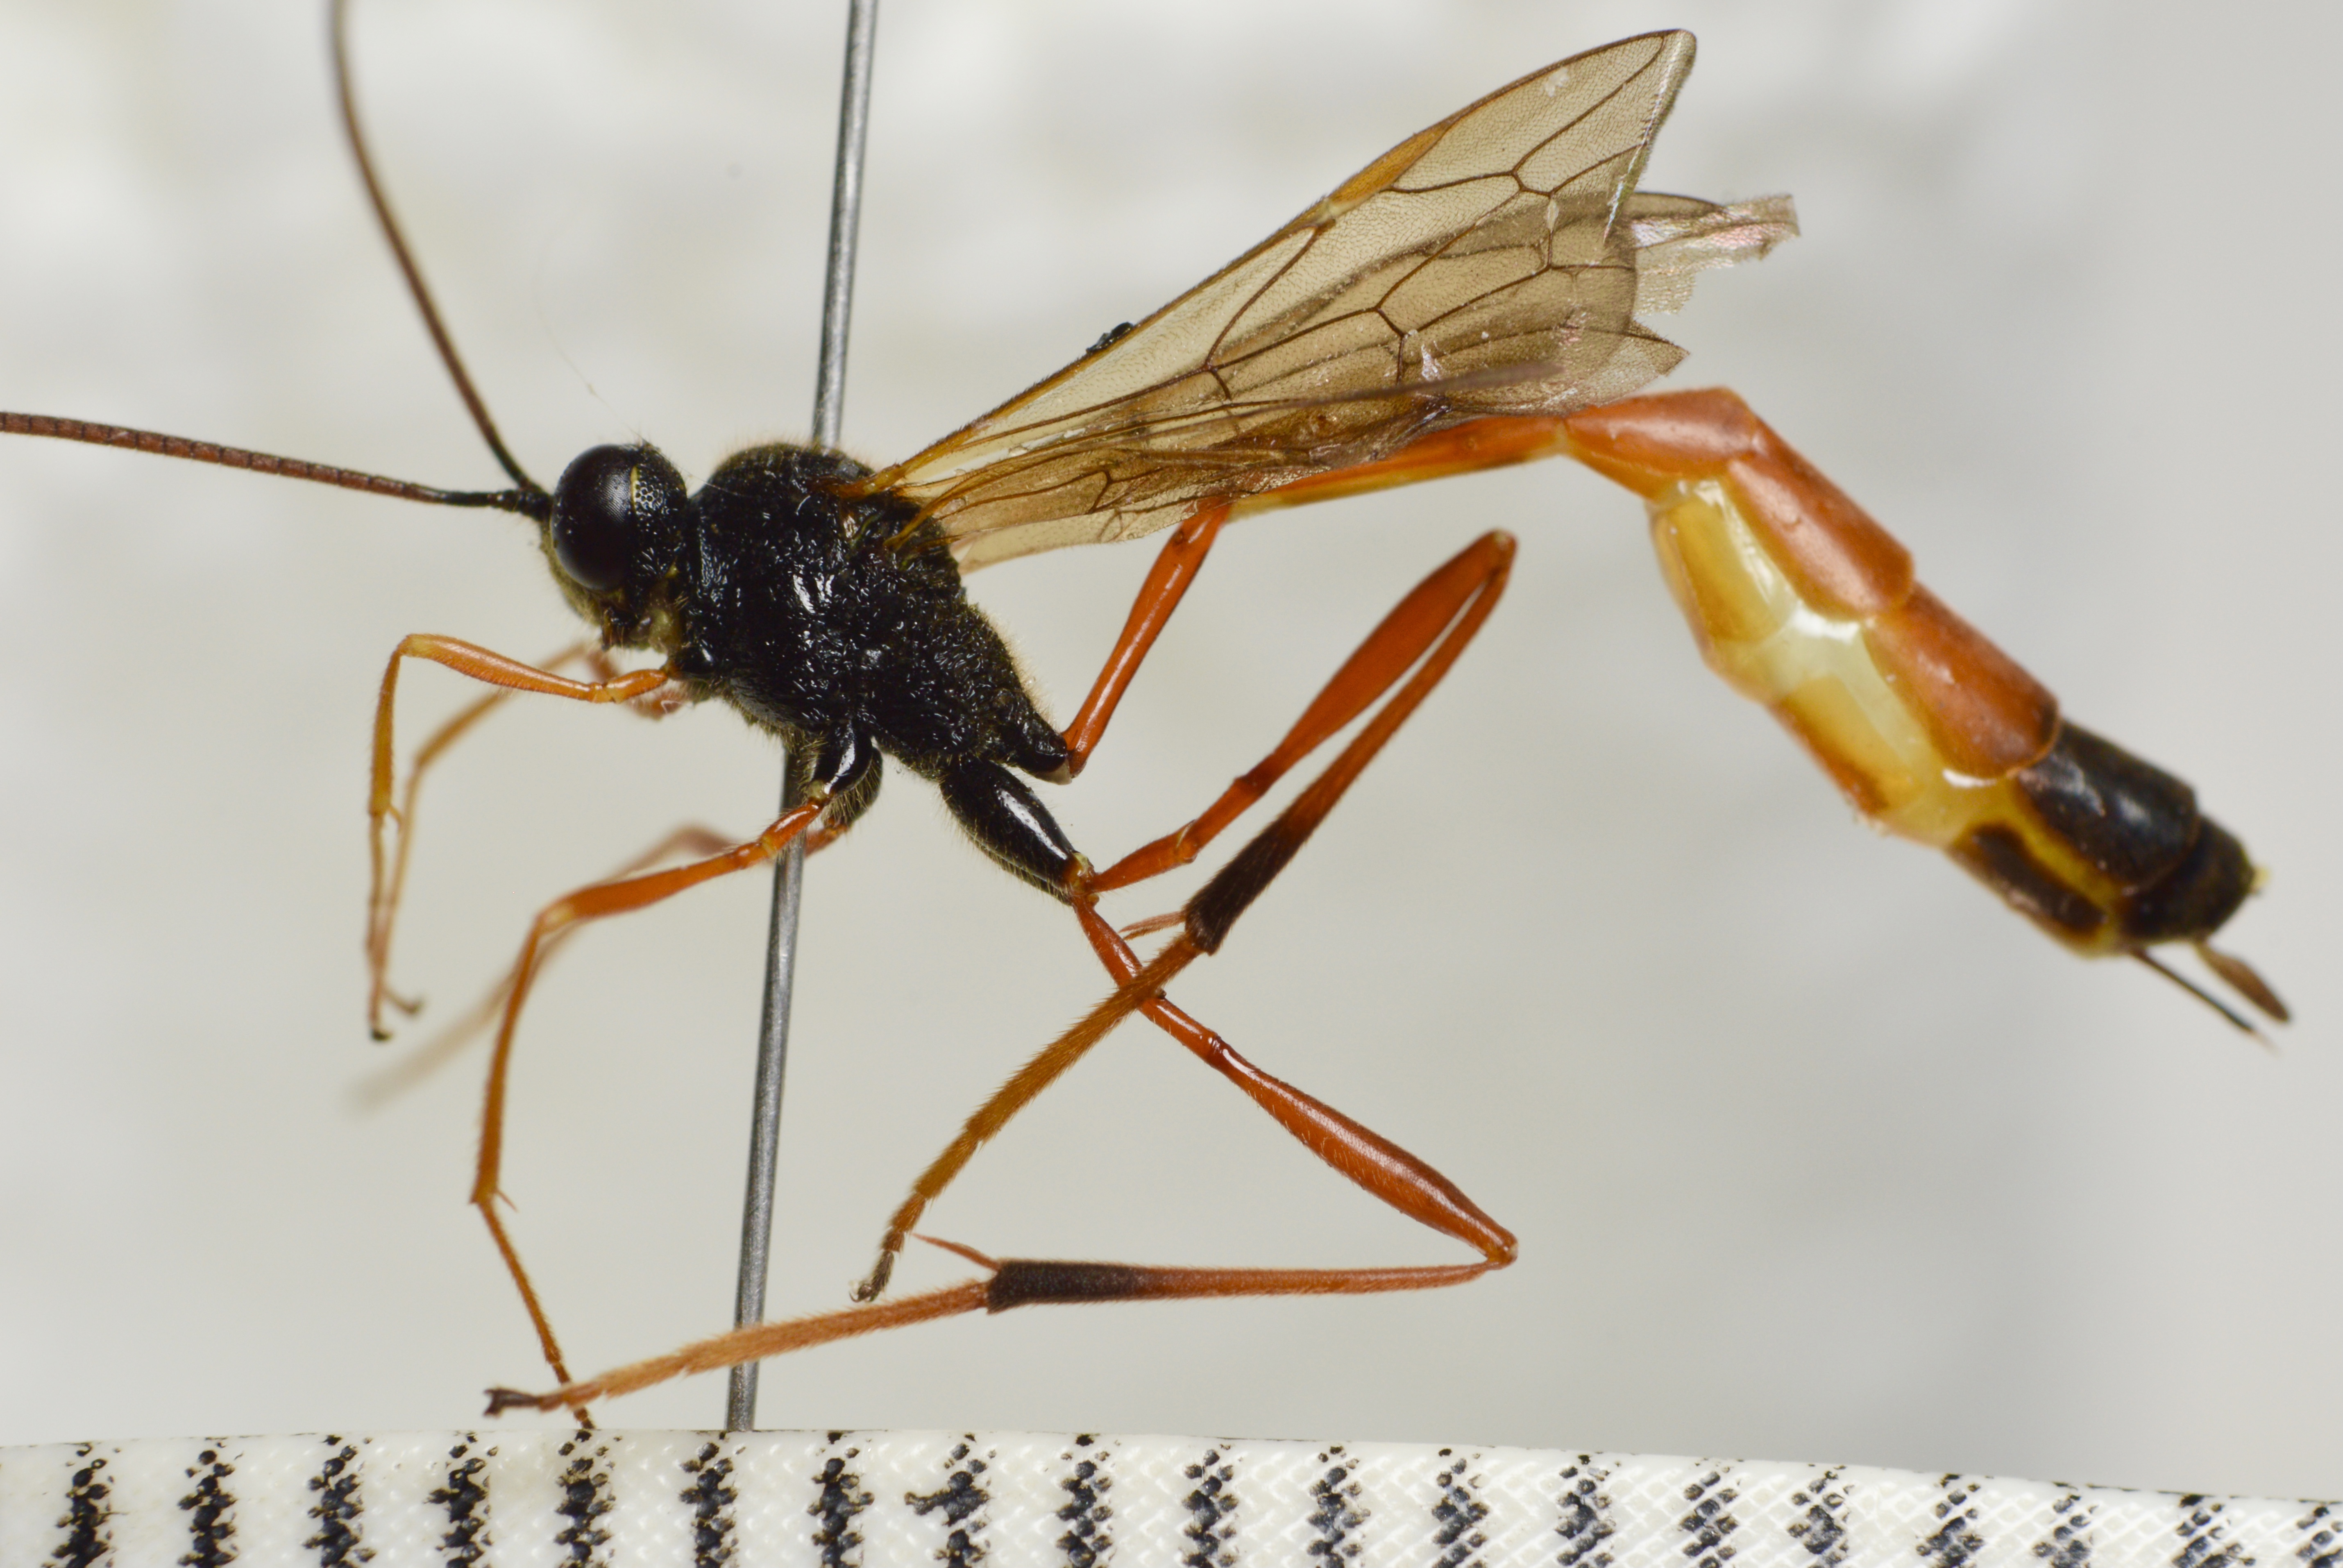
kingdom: Animalia
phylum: Arthropoda
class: Insecta
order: Hymenoptera
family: Ichneumonidae
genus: Heteropelma
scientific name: Heteropelma megarthrum
